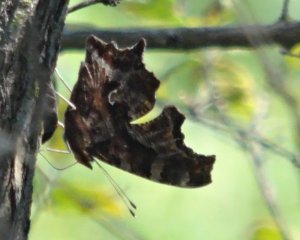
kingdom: Animalia
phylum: Arthropoda
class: Insecta
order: Lepidoptera
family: Nymphalidae
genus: Polygonia
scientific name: Polygonia comma
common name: Eastern Comma
